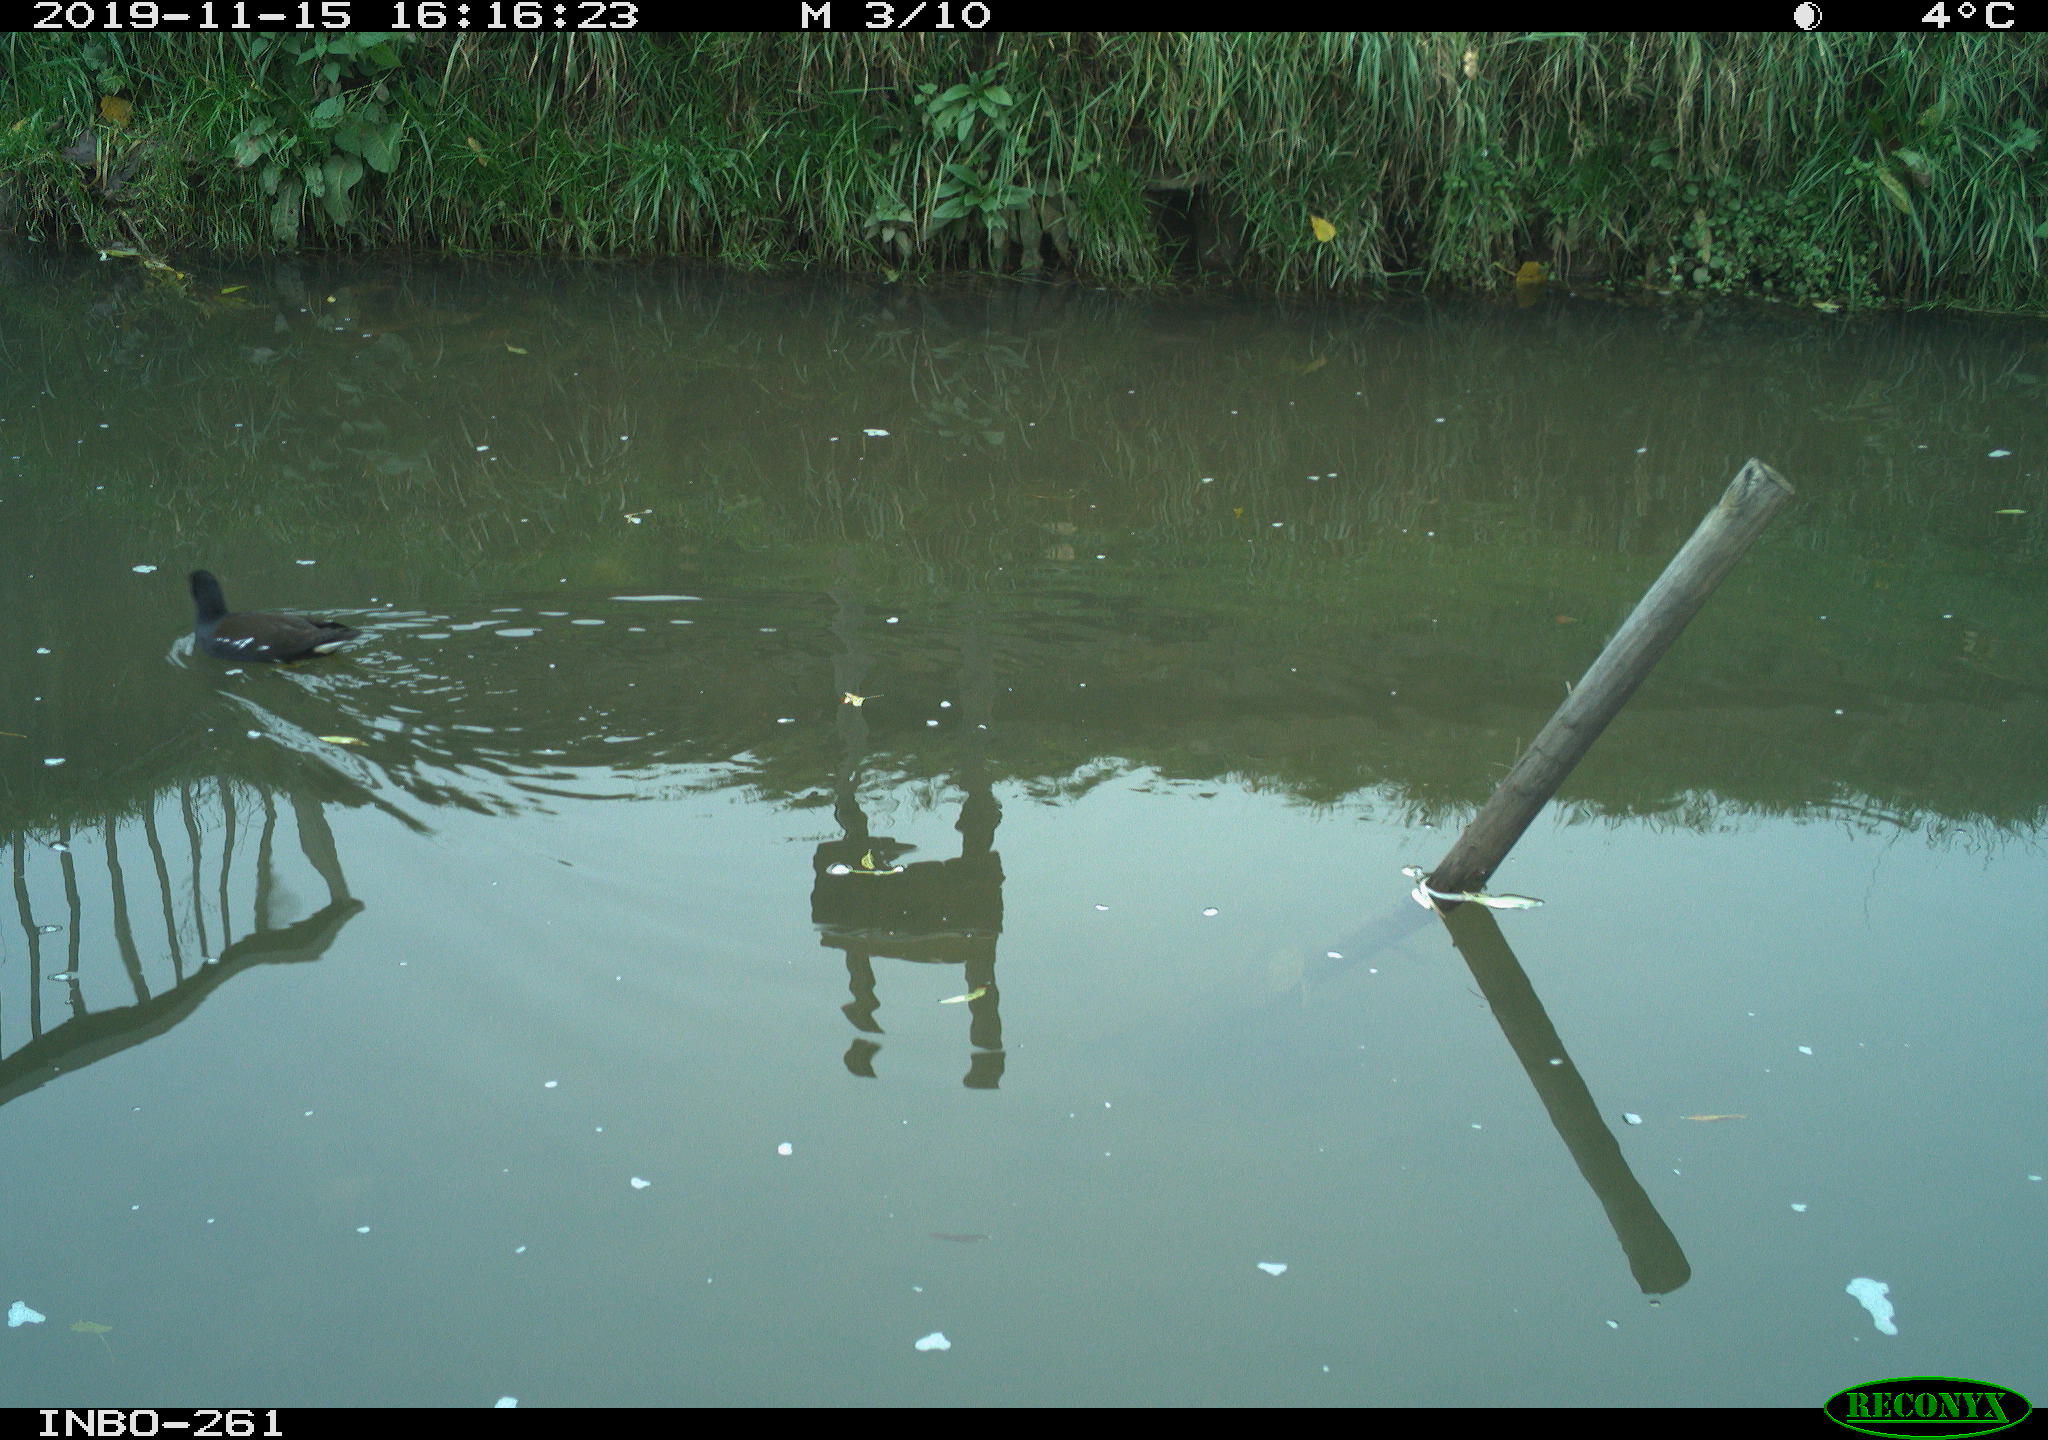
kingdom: Animalia
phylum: Chordata
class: Aves
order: Gruiformes
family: Rallidae
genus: Gallinula
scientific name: Gallinula chloropus
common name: Common moorhen
